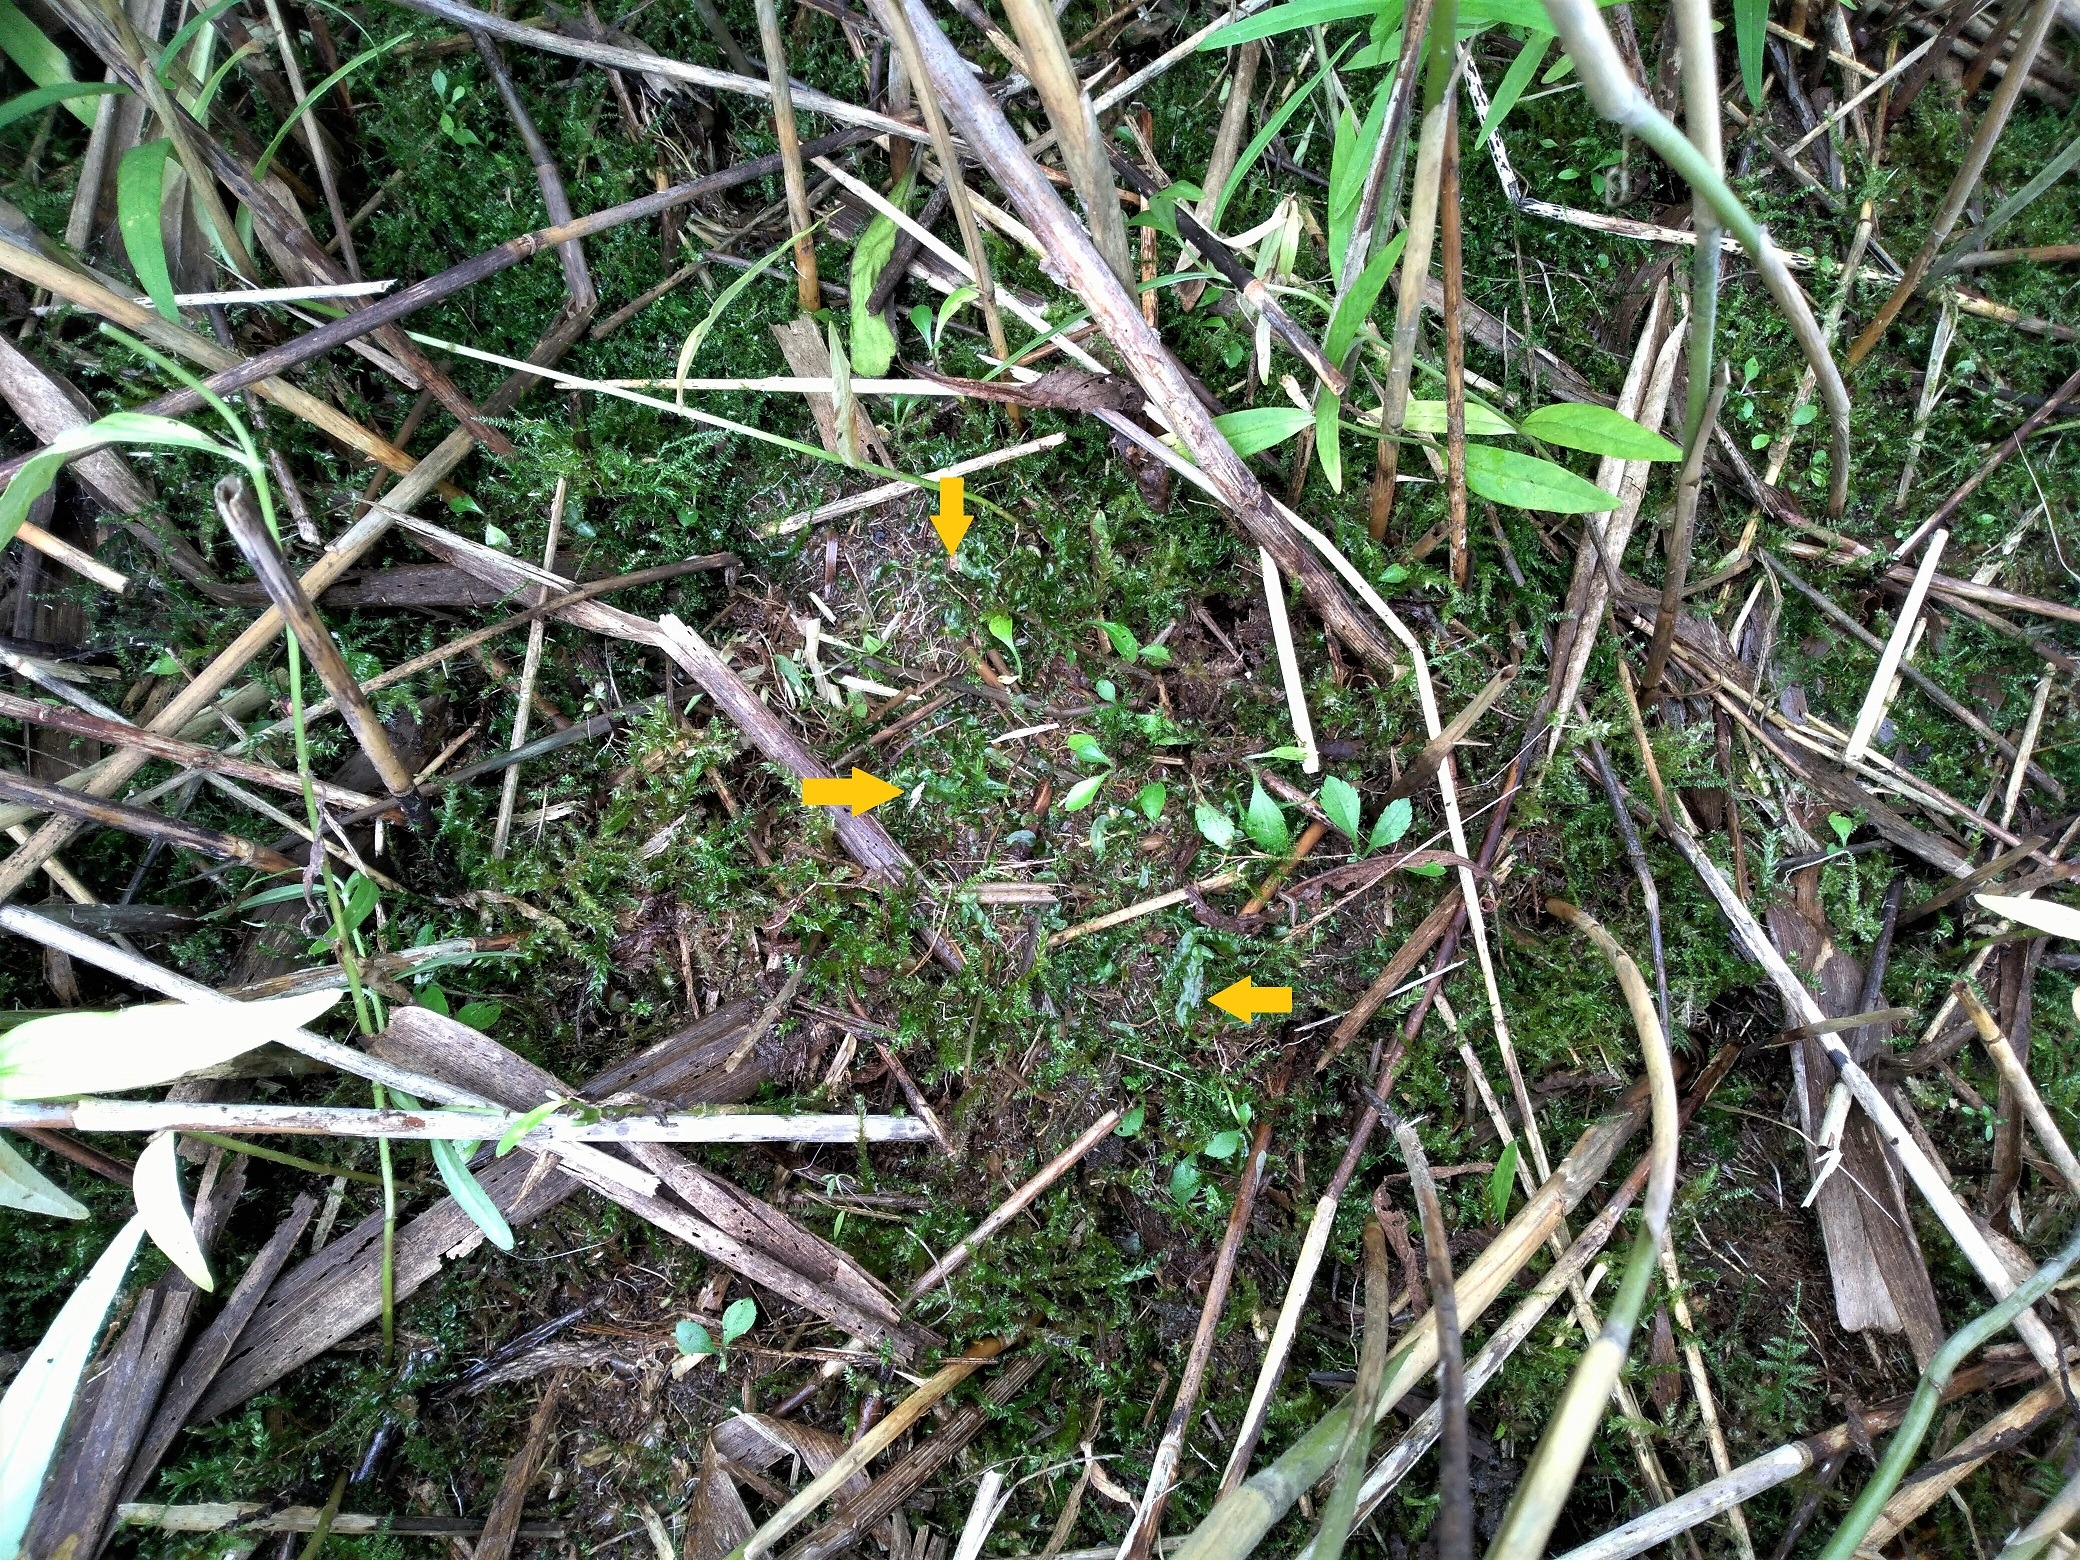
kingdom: Plantae
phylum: Marchantiophyta
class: Jungermanniopsida
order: Pallaviciniales
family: Pallaviciniaceae
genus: Pallavicinia
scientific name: Pallavicinia lyellii
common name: Almindelig strengløv
